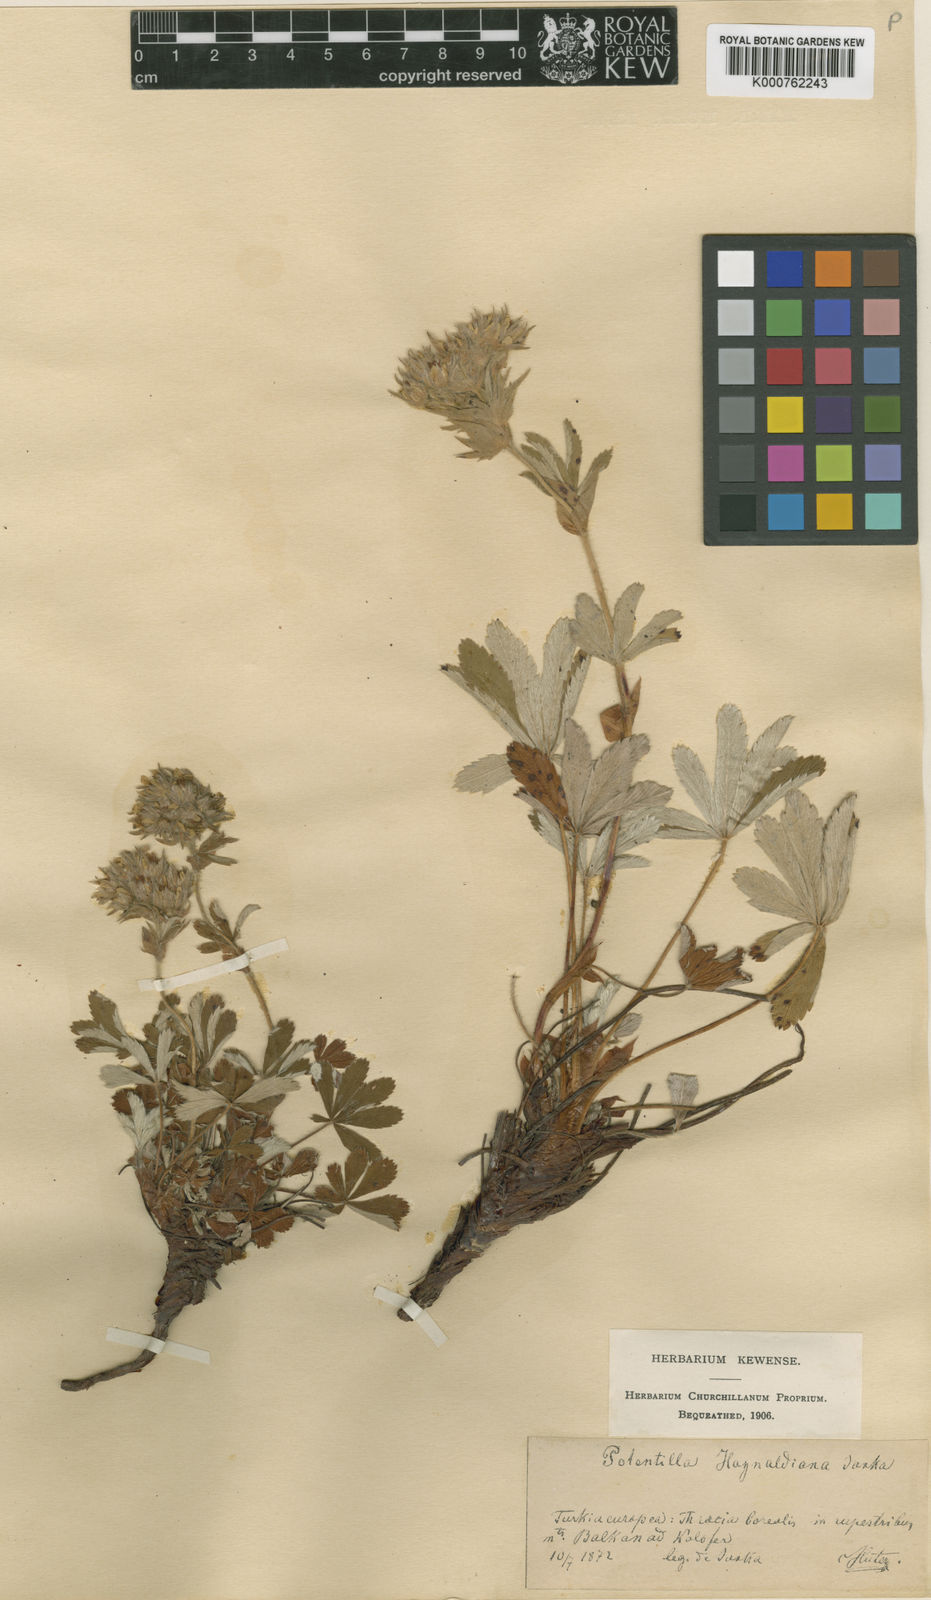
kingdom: Plantae
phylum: Tracheophyta
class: Magnoliopsida
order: Rosales
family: Rosaceae
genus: Potentilla
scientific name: Potentilla haynaldiana
